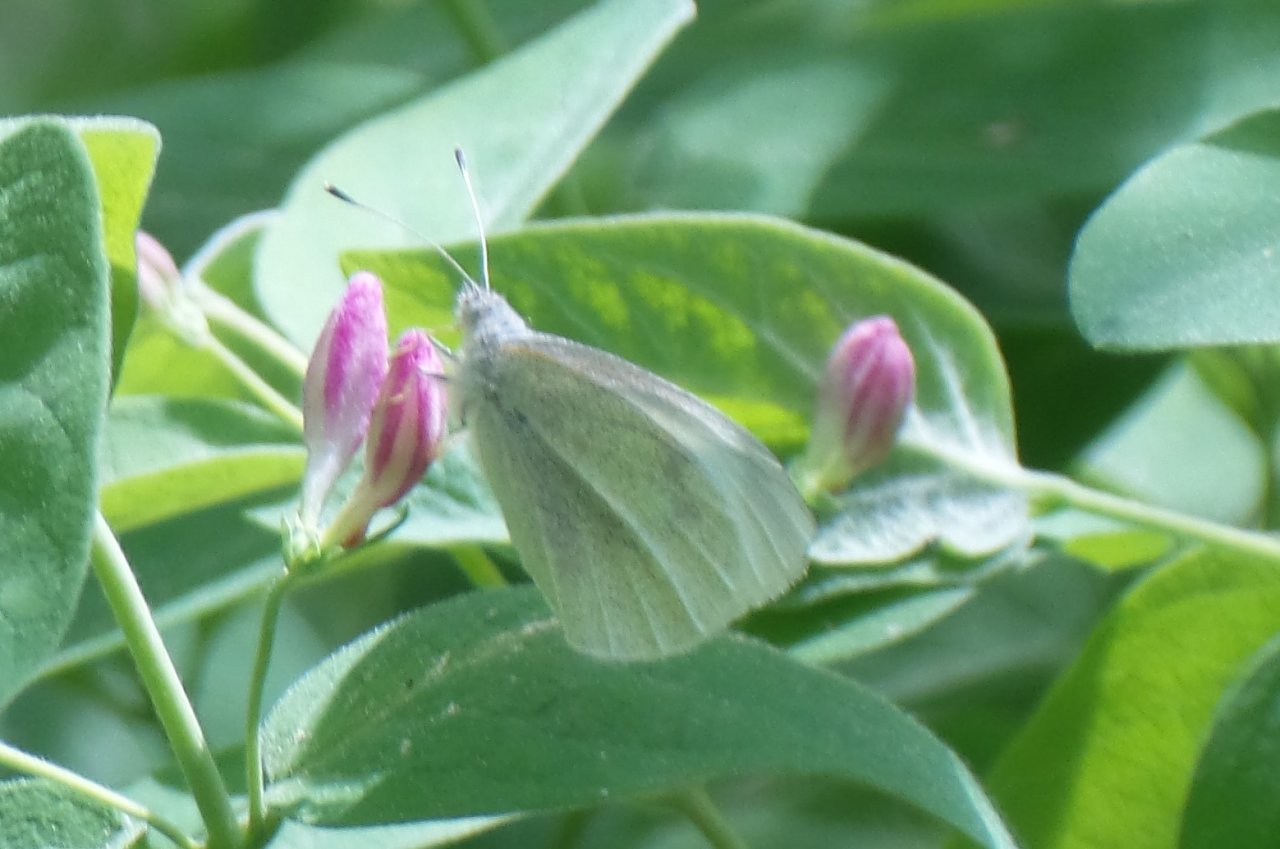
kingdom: Animalia
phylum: Arthropoda
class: Insecta
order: Lepidoptera
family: Pieridae
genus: Pieris
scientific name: Pieris oleracea
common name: Mustard White
